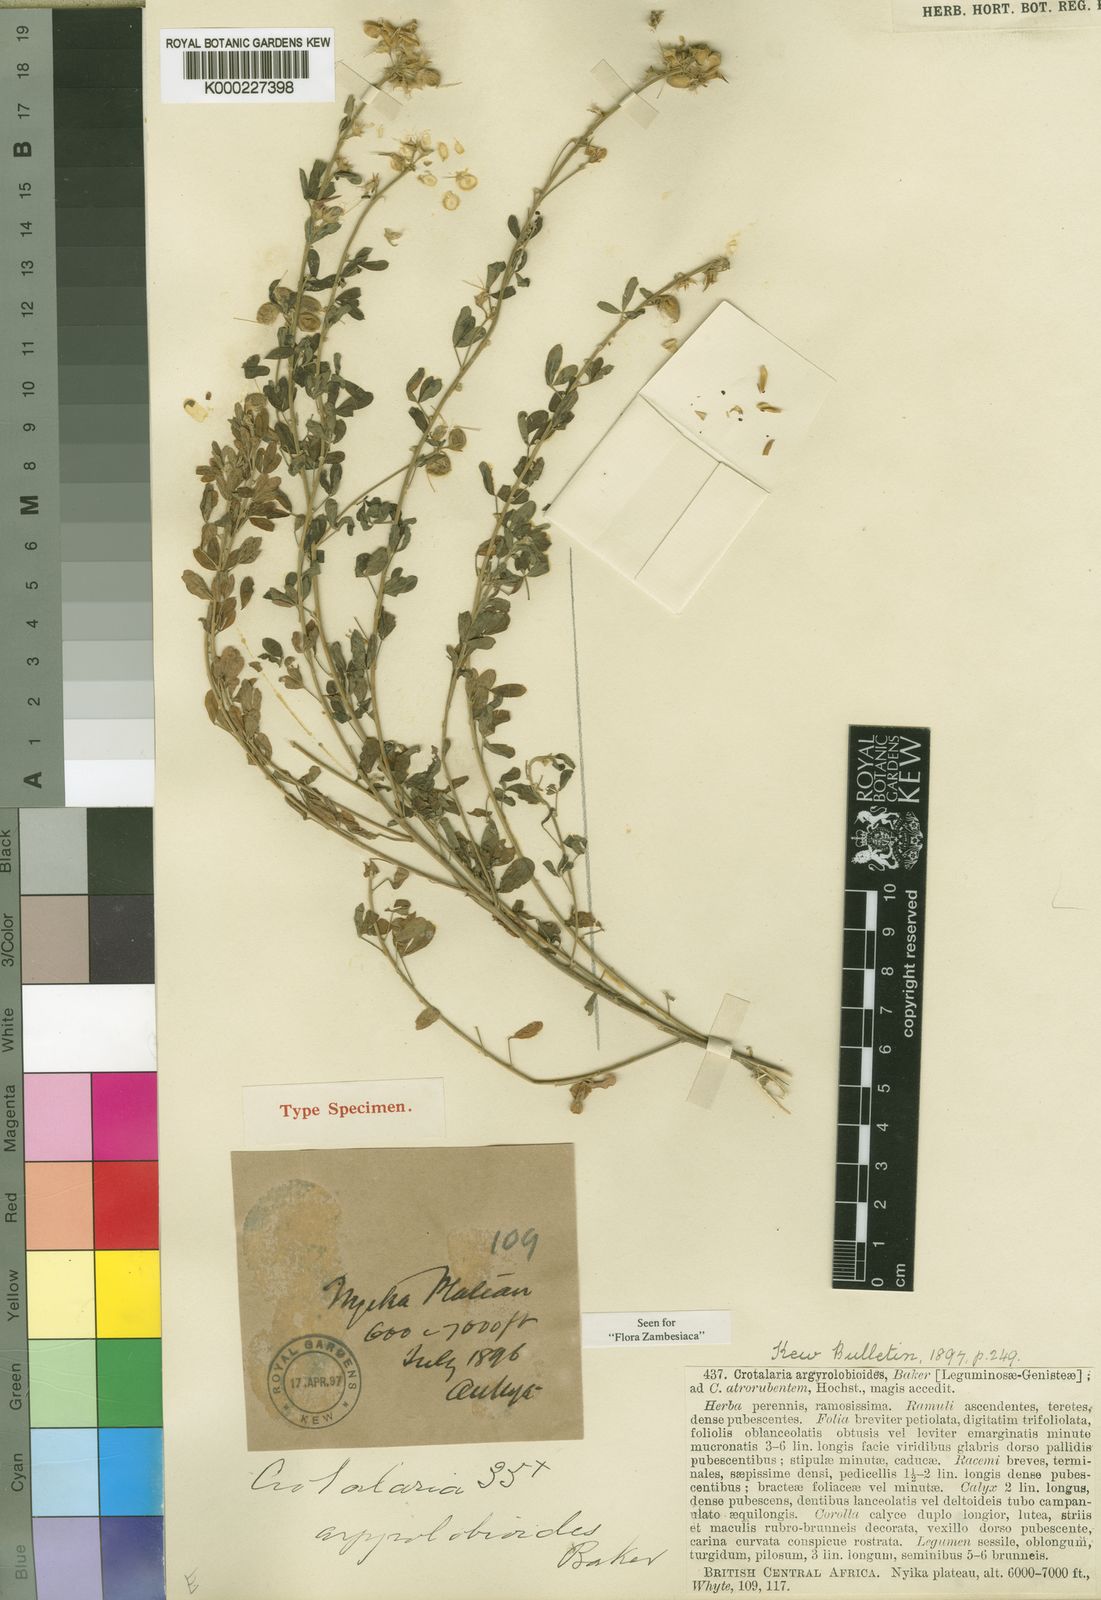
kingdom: Plantae
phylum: Tracheophyta
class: Magnoliopsida
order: Fabales
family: Fabaceae
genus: Crotalaria
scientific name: Crotalaria argyrolobioides
